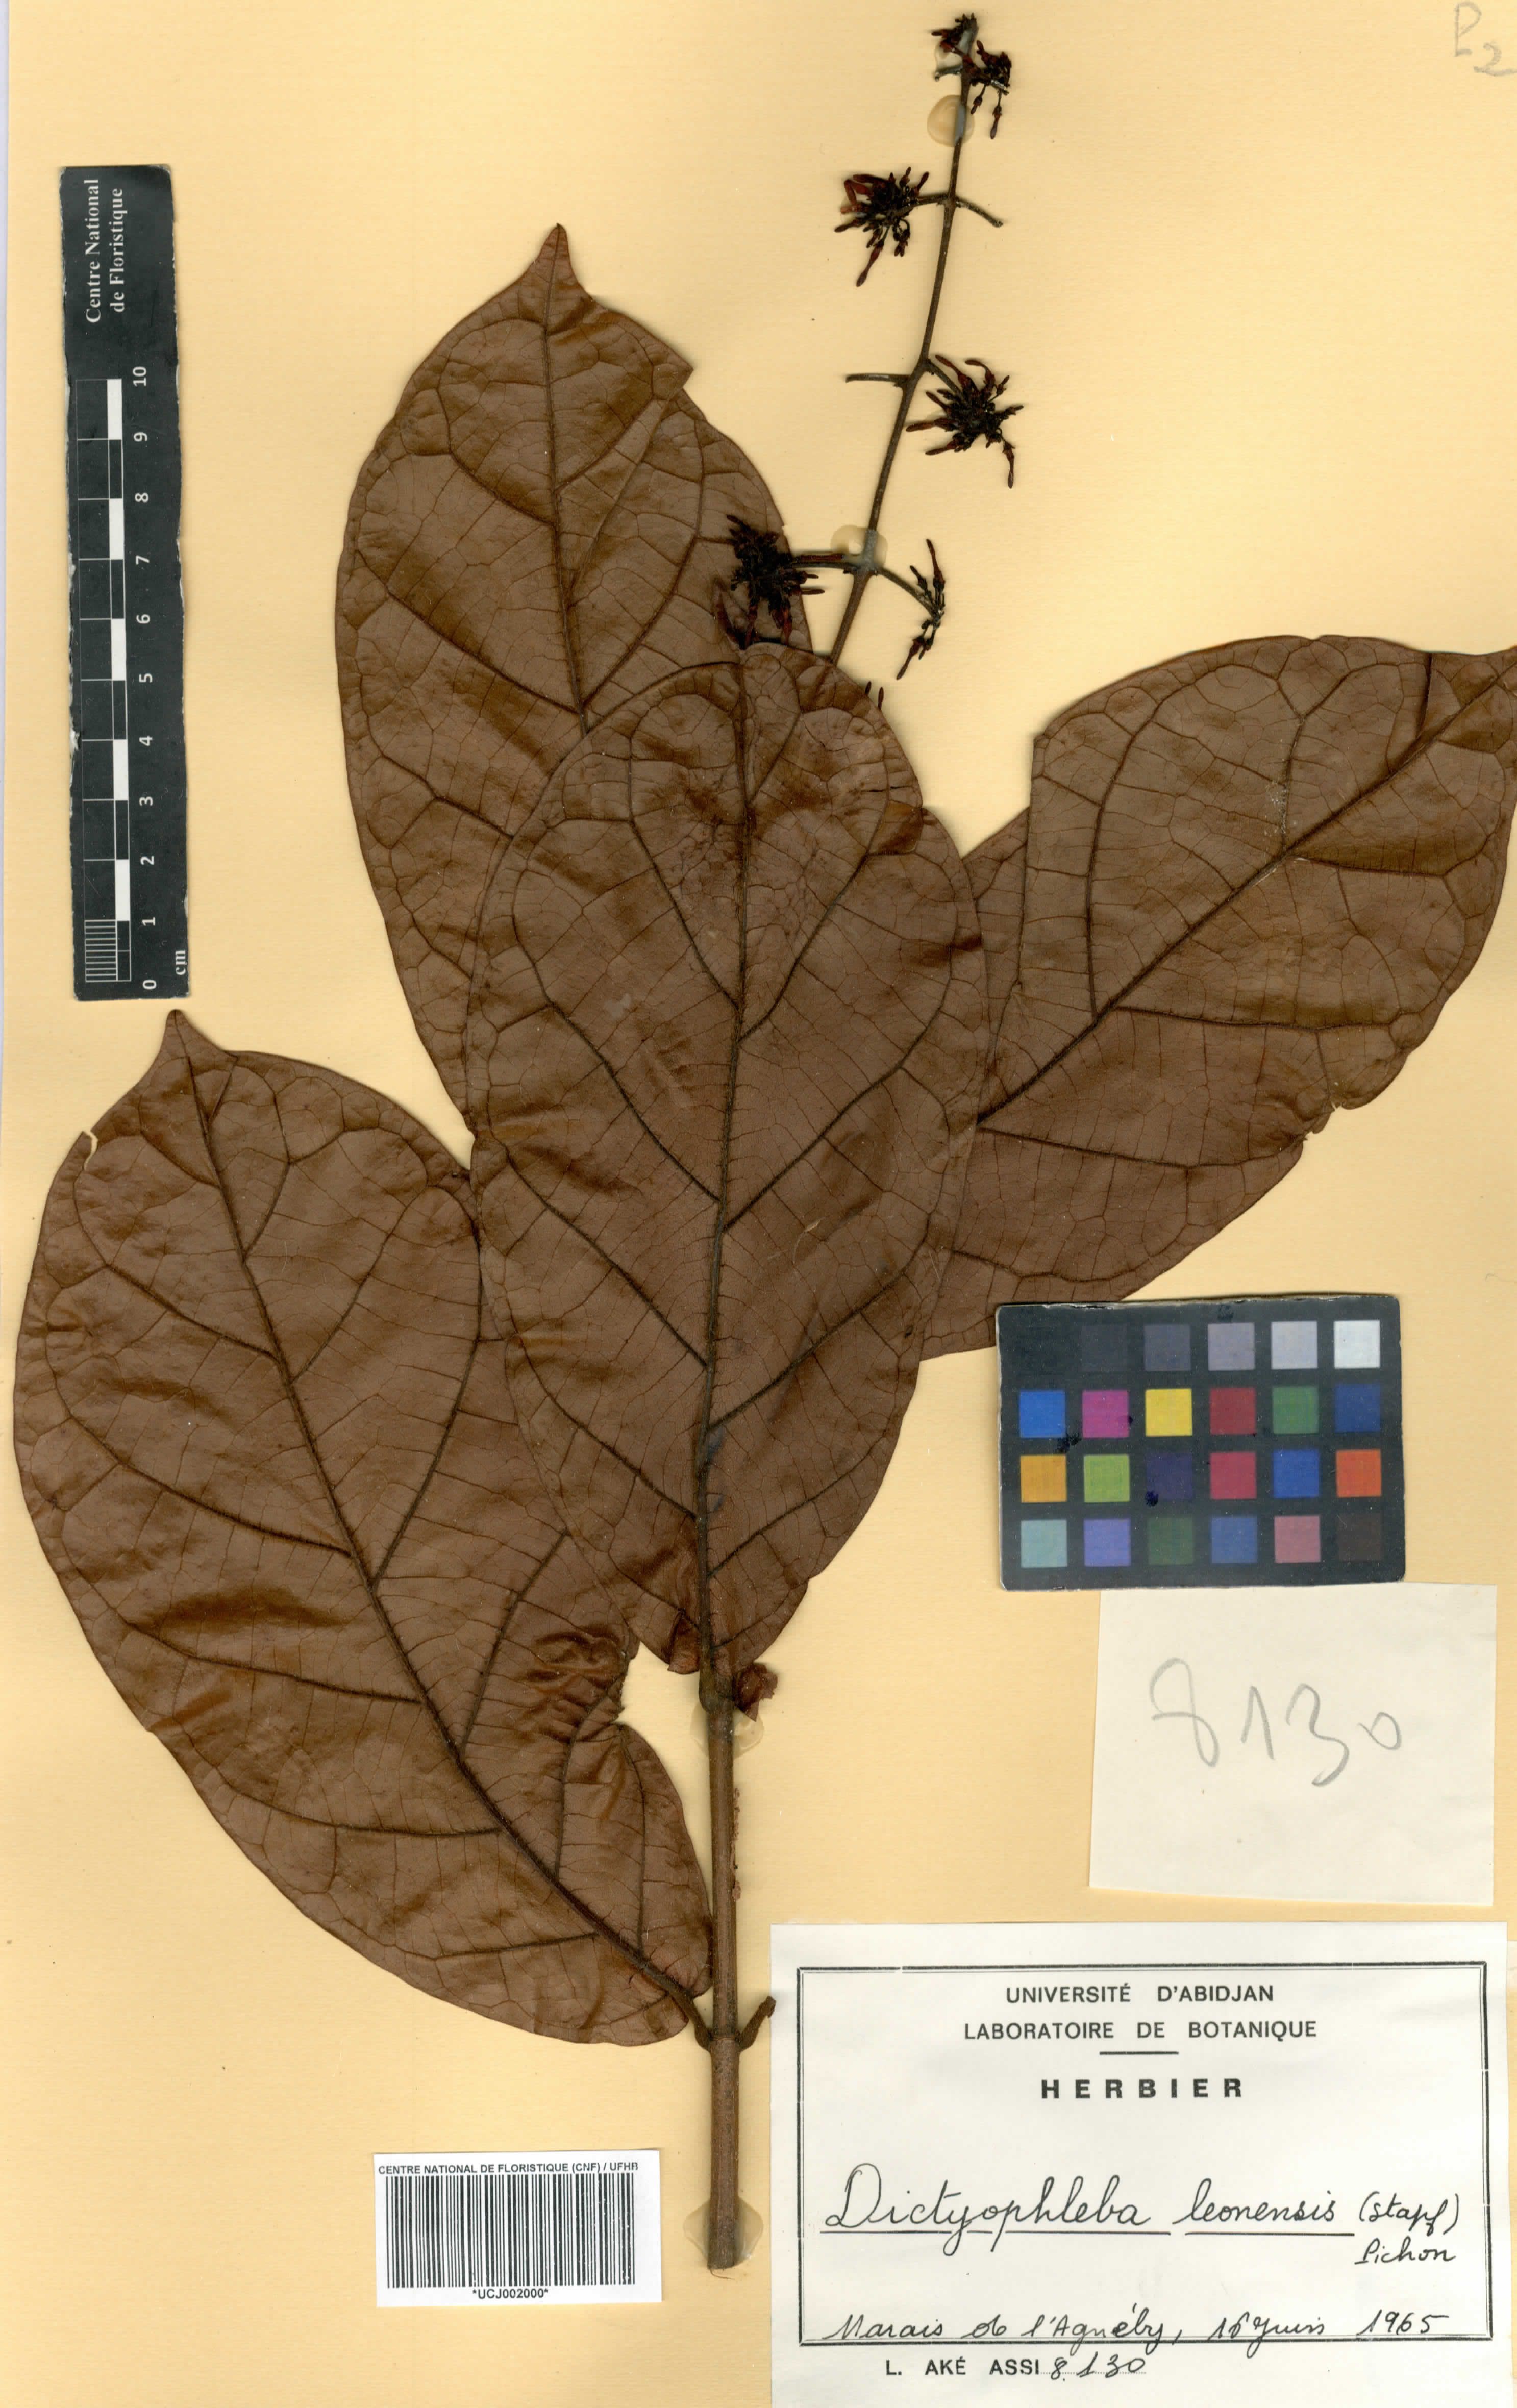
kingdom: Plantae
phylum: Tracheophyta
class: Magnoliopsida
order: Gentianales
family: Apocynaceae
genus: Dictyophleba
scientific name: Dictyophleba leonensis
